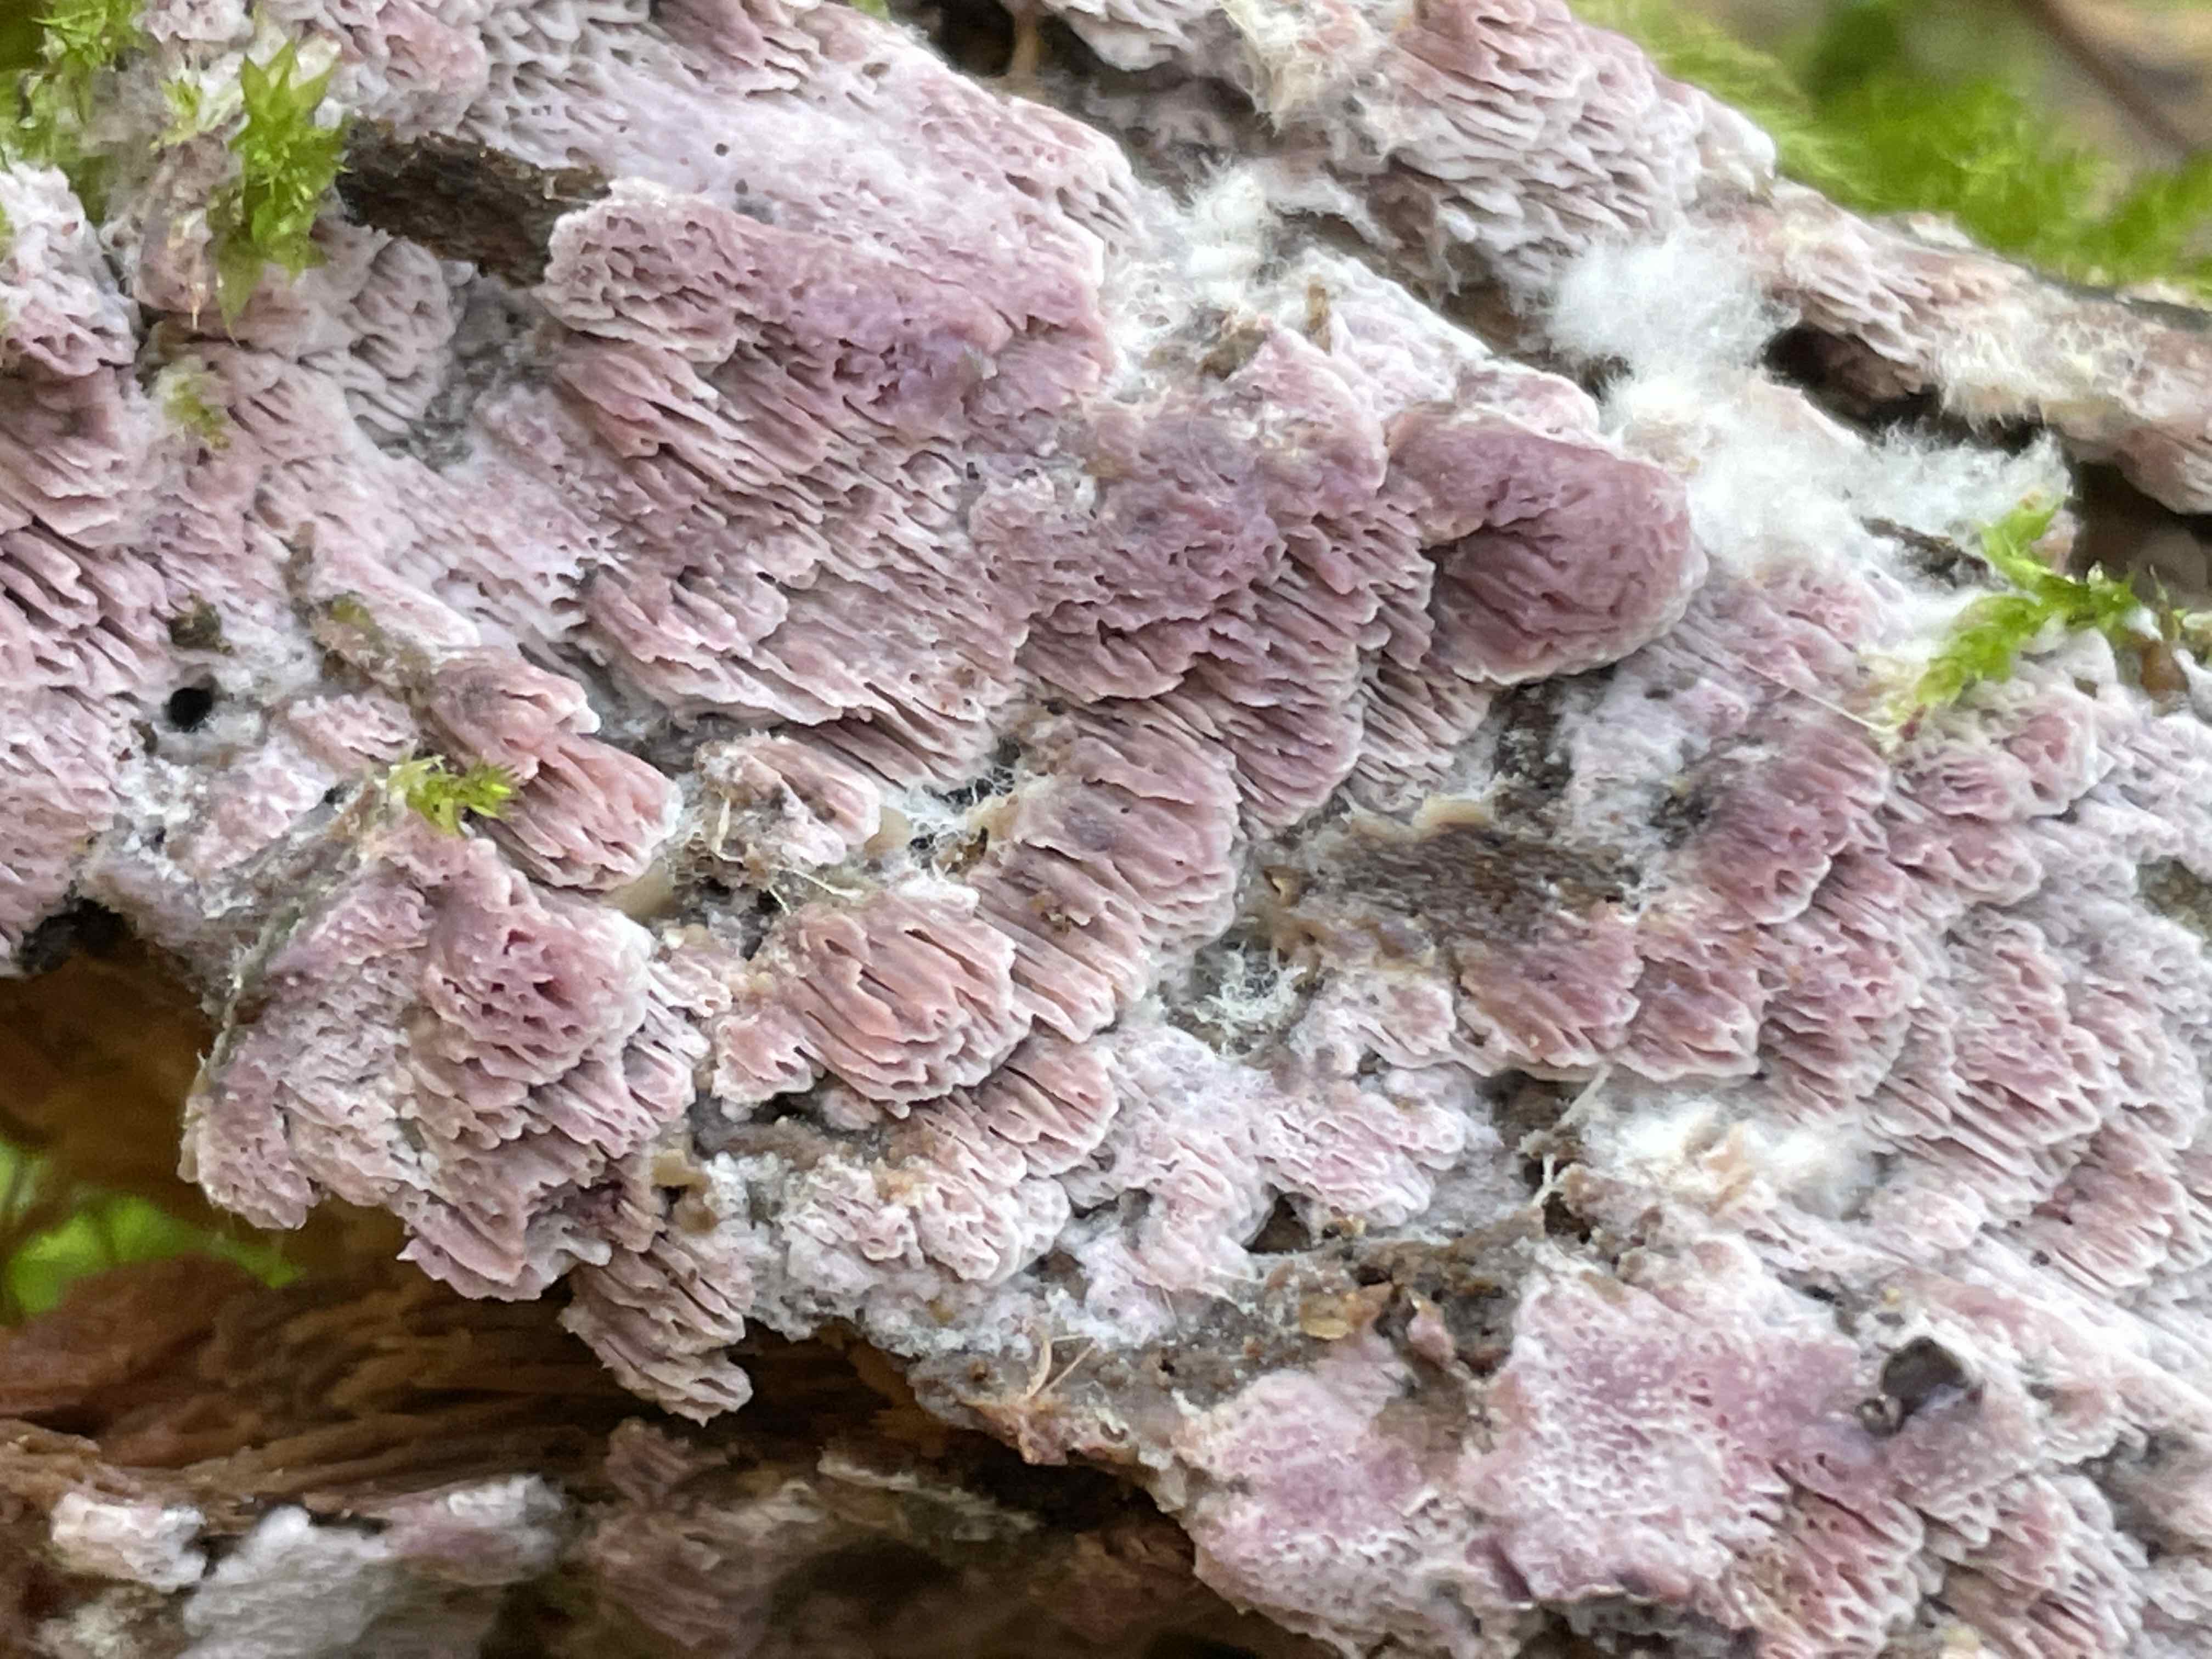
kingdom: Fungi
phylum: Basidiomycota
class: Agaricomycetes
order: Polyporales
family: Irpicaceae
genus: Ceriporia
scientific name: Ceriporia
